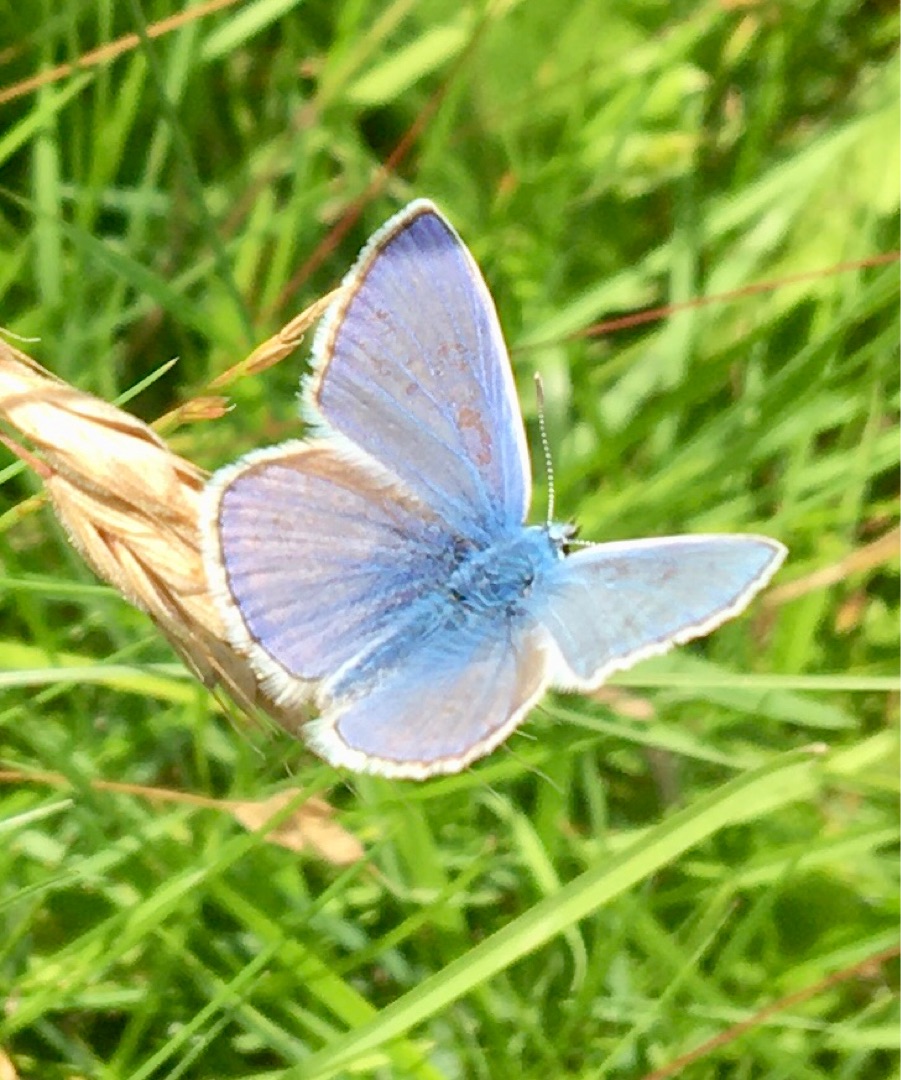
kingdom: Animalia
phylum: Arthropoda
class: Insecta
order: Lepidoptera
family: Lycaenidae
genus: Polyommatus
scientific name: Polyommatus icarus
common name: Almindelig blåfugl
